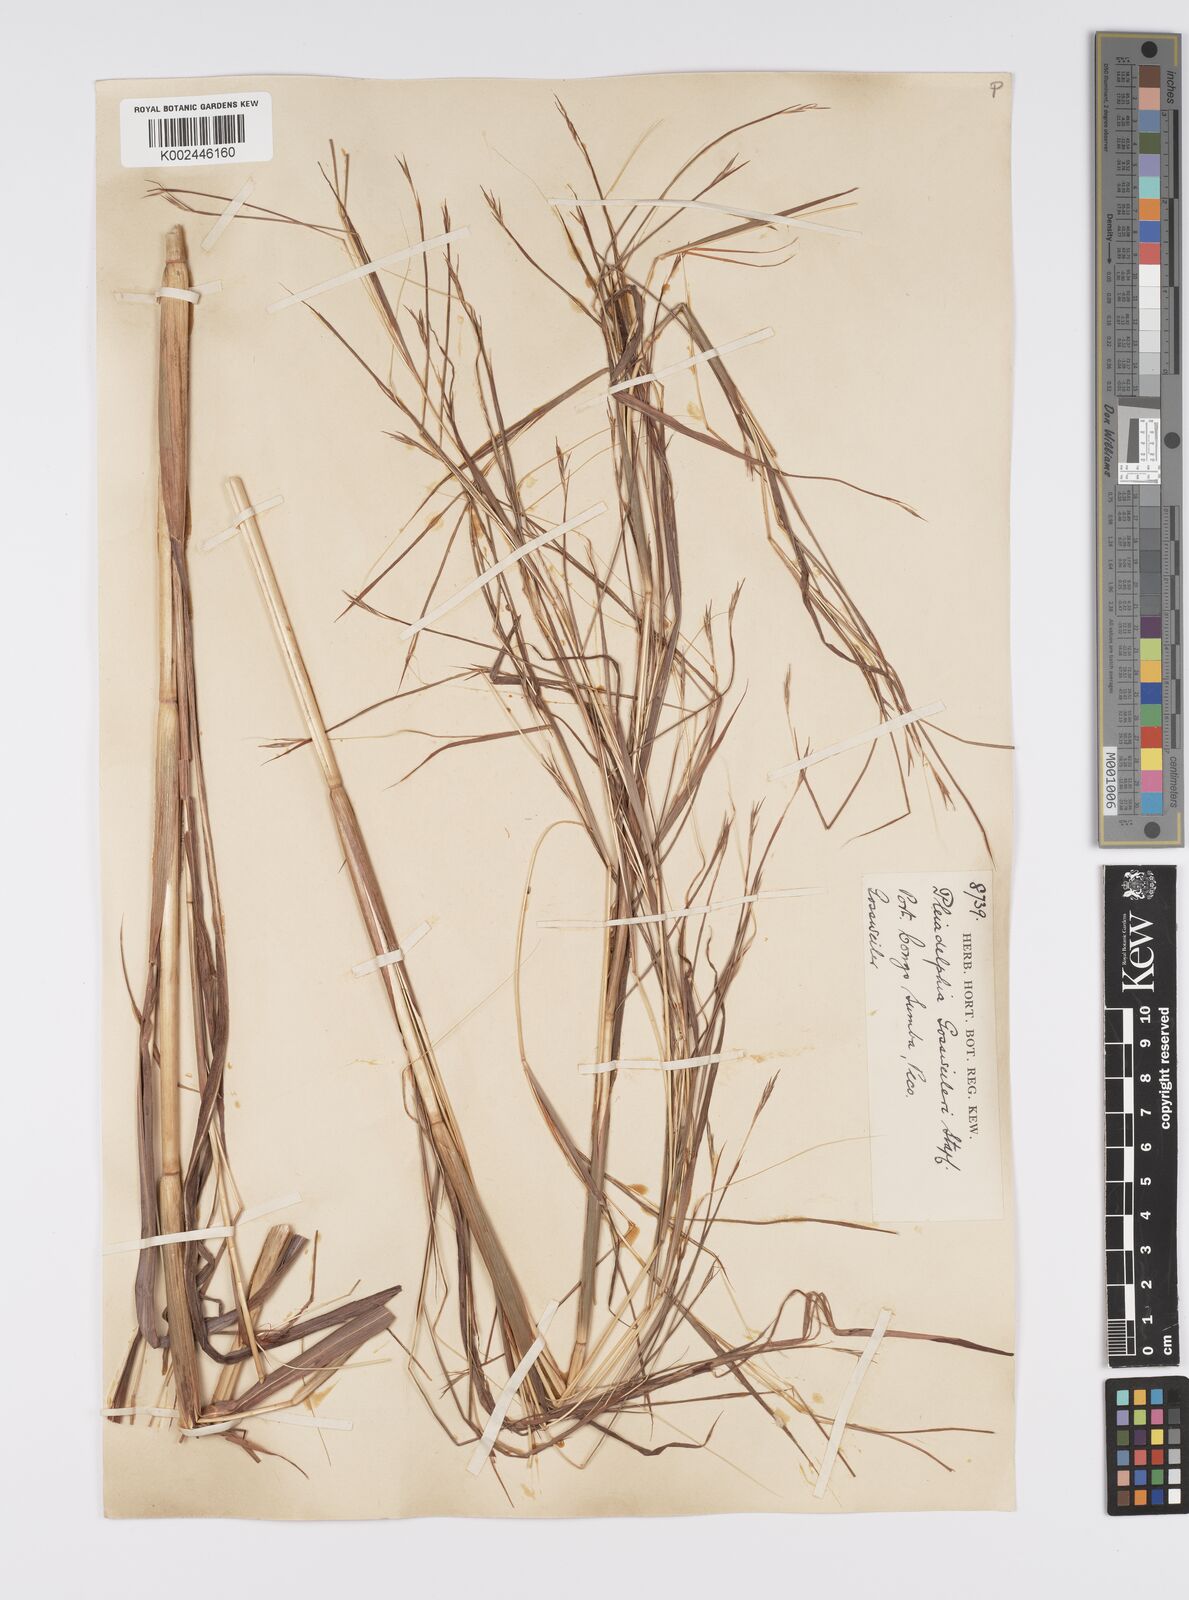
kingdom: Plantae
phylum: Tracheophyta
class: Liliopsida
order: Poales
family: Poaceae
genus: Elymandra
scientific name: Elymandra gossweileri
